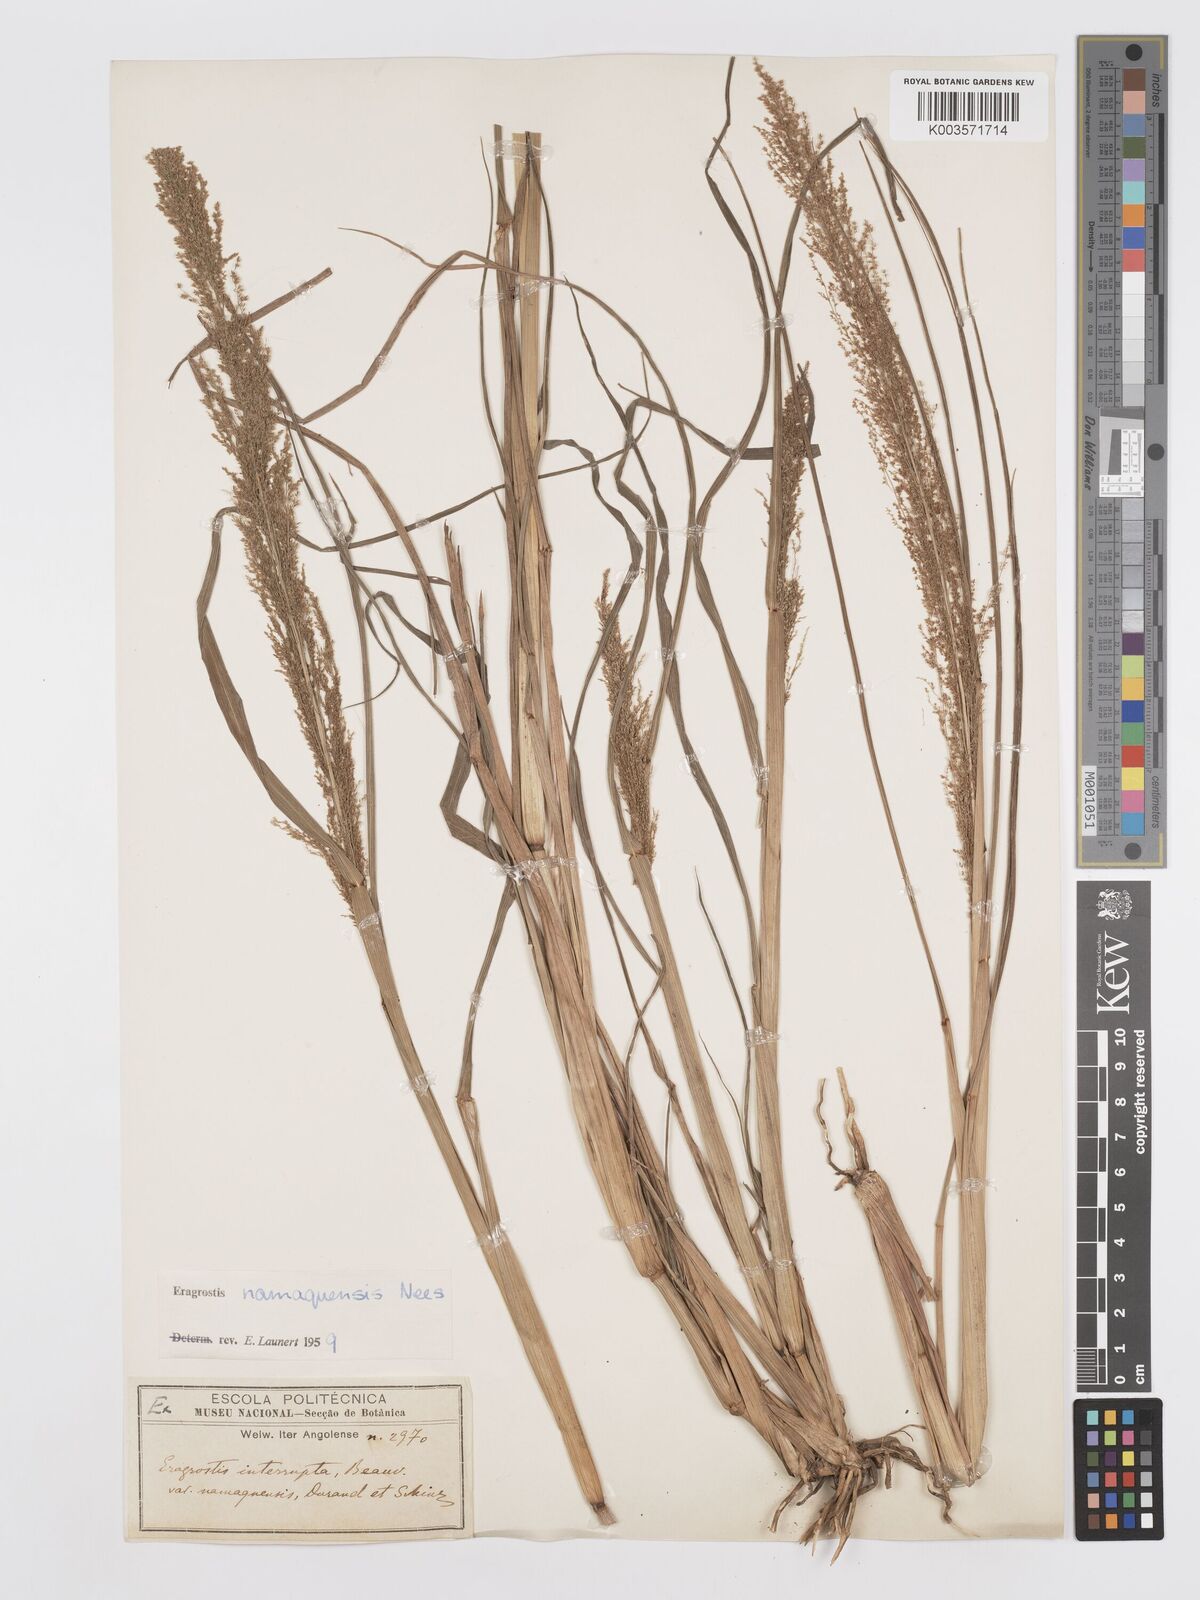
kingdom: Plantae
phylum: Tracheophyta
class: Liliopsida
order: Poales
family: Poaceae
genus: Eragrostis
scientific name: Eragrostis japonica
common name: Pond lovegrass
